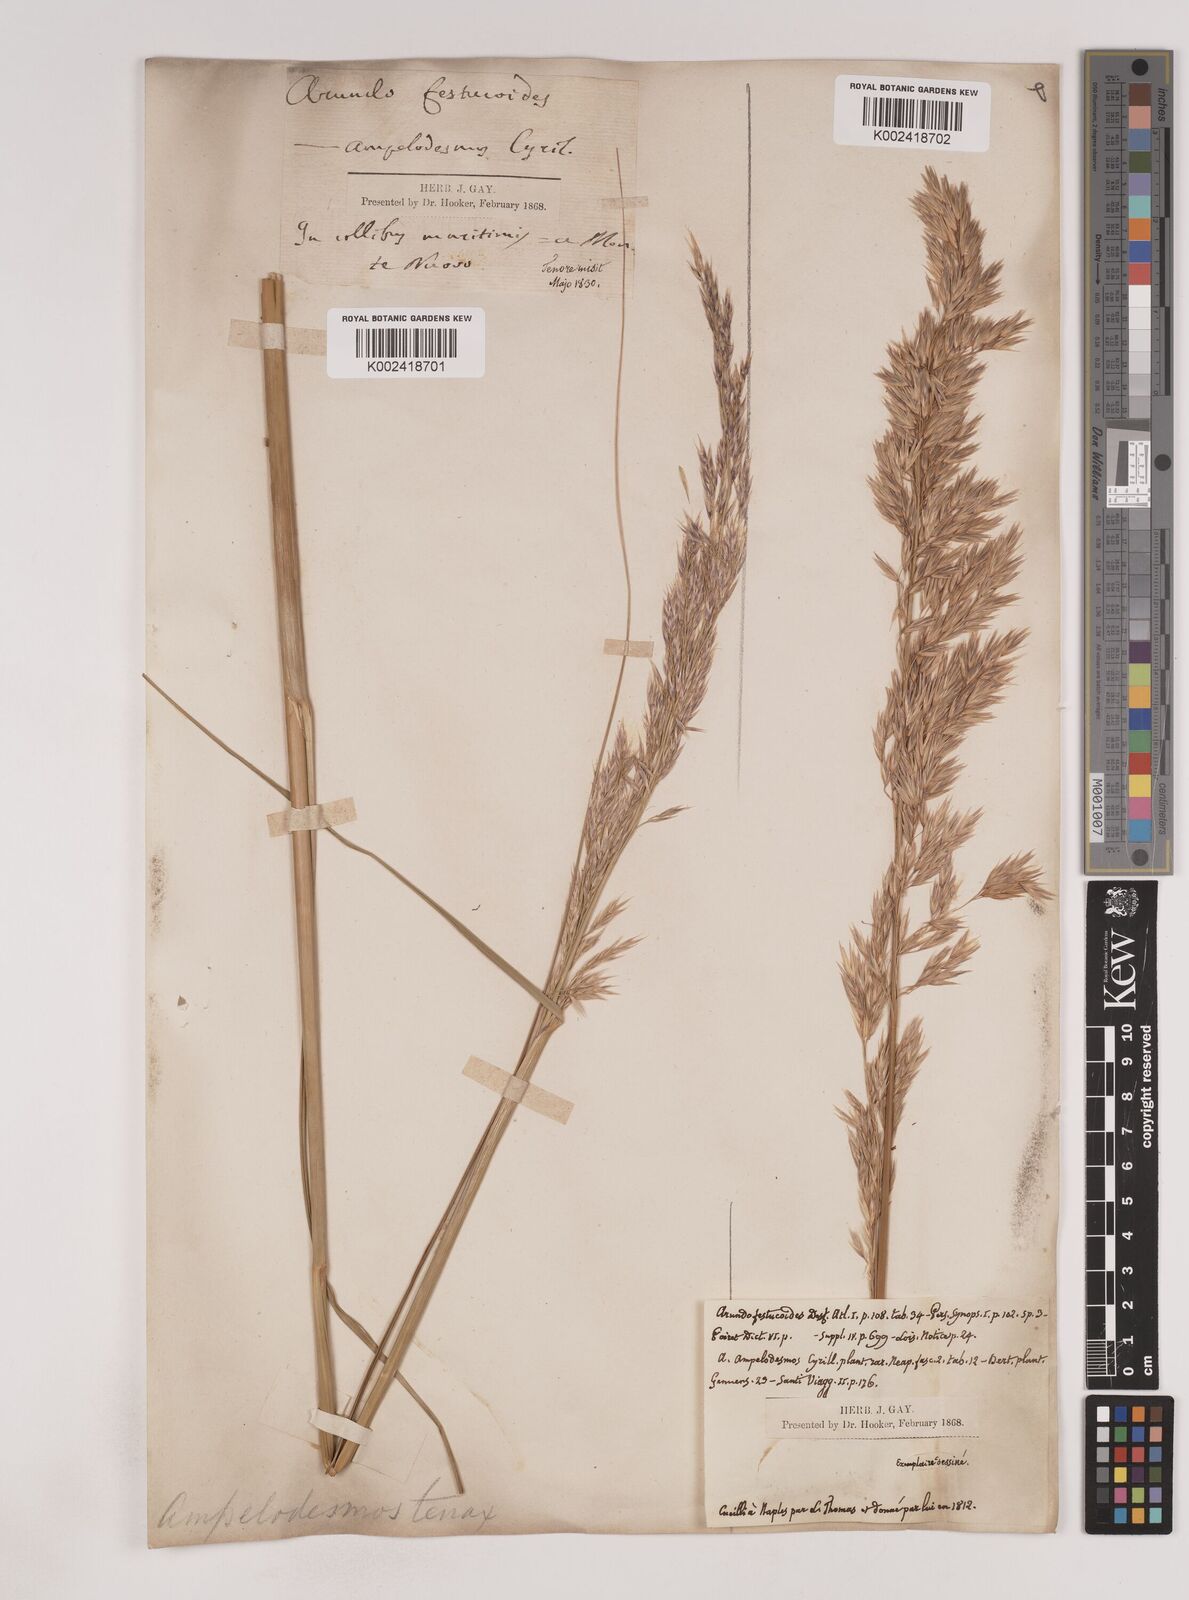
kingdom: Plantae
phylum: Tracheophyta
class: Liliopsida
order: Poales
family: Poaceae
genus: Ampelodesmos
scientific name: Ampelodesmos mauritanicus
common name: Mauritanian grass
